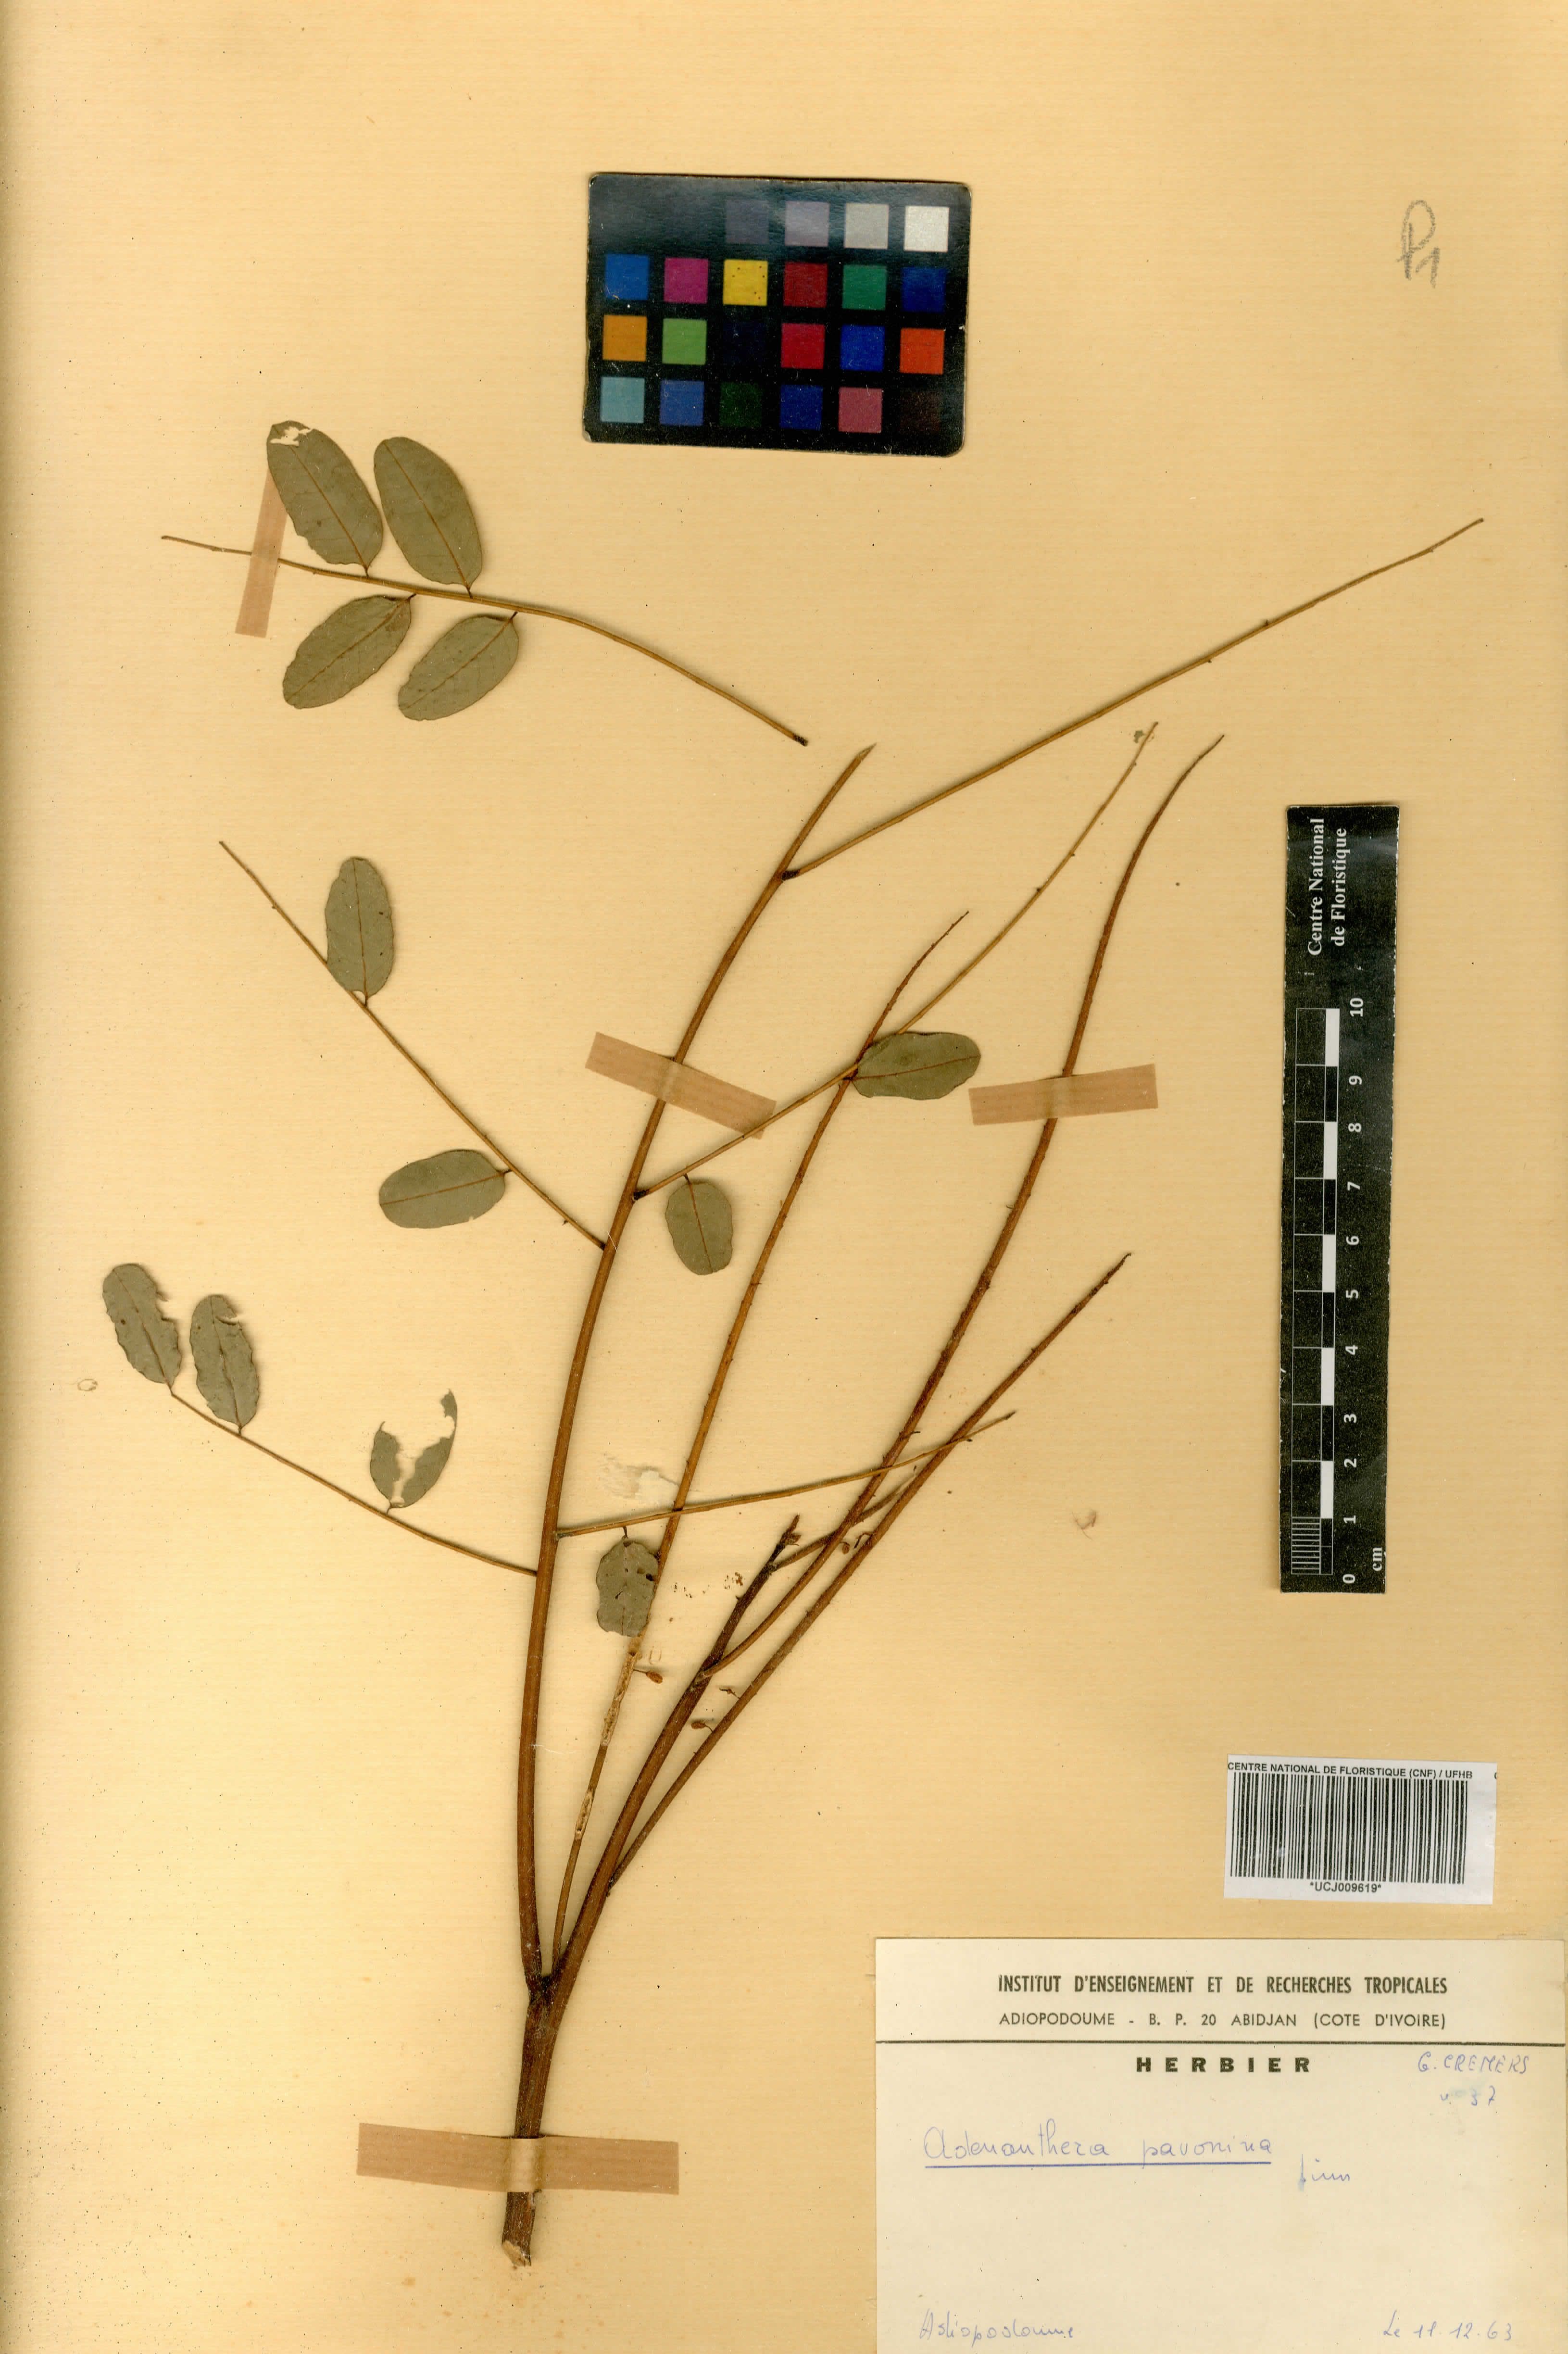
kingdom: Plantae
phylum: Tracheophyta
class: Magnoliopsida
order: Fabales
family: Fabaceae
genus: Adenanthera
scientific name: Adenanthera pavonina
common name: Red beadtree
